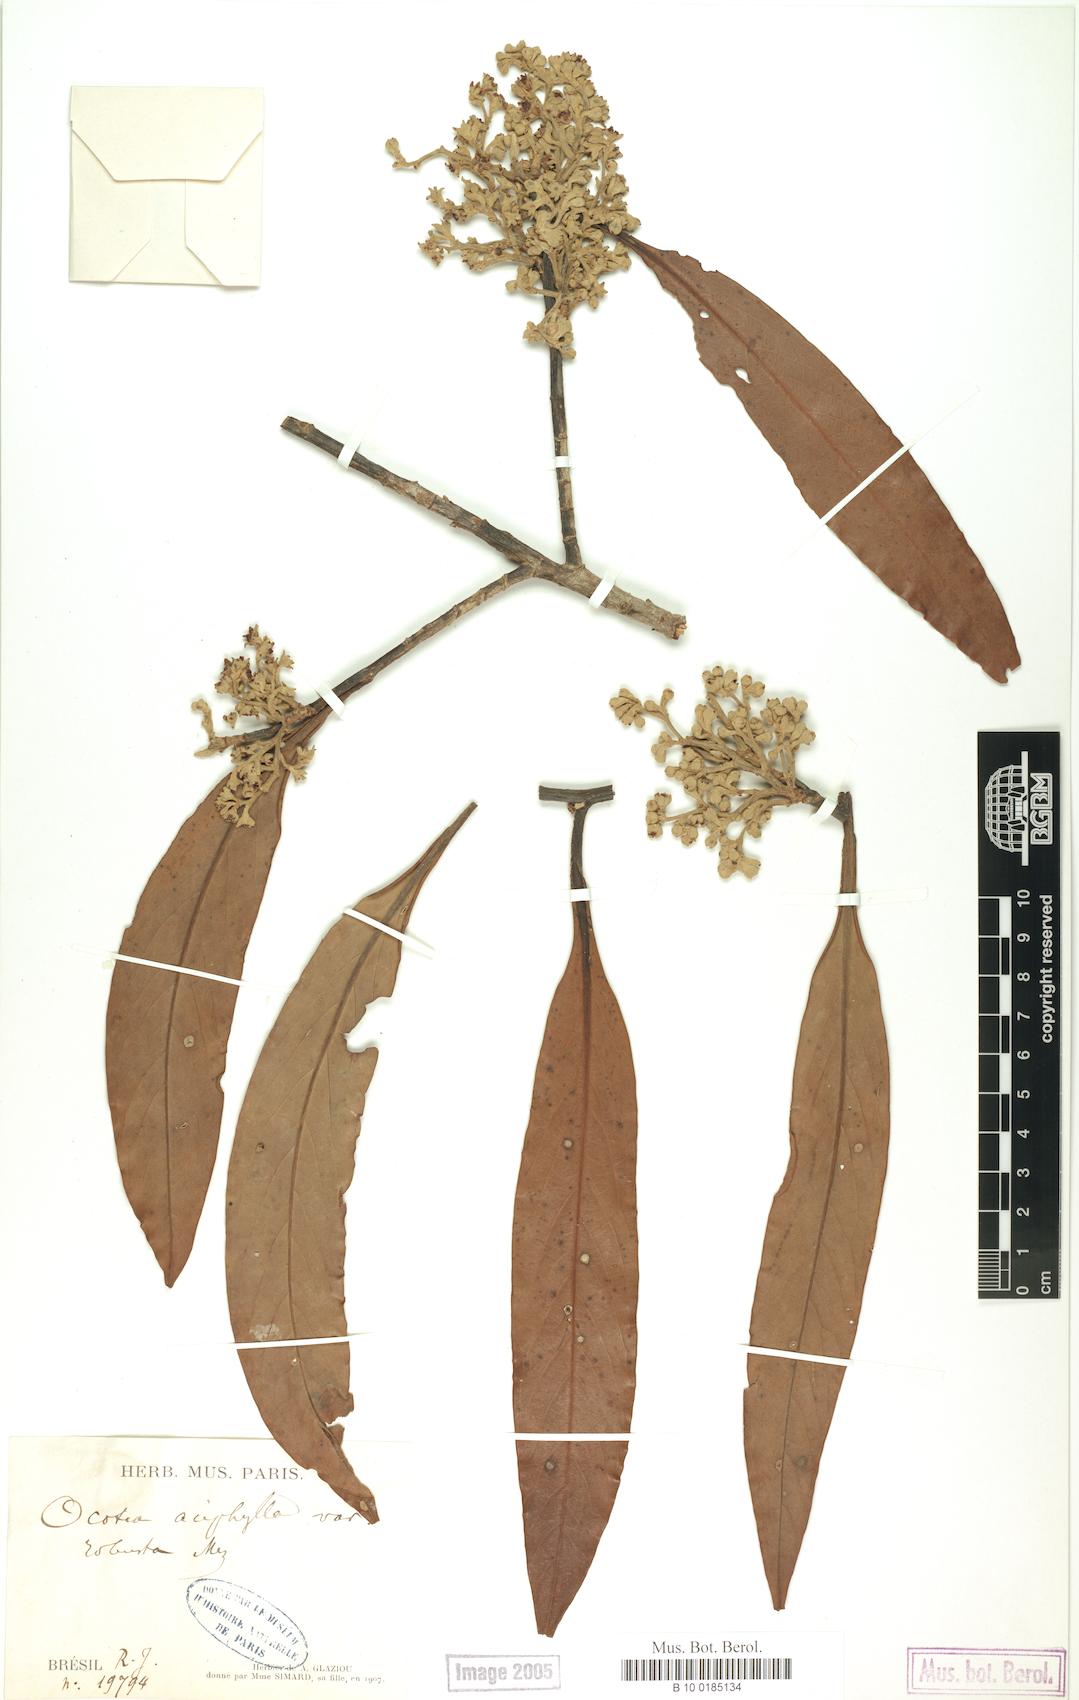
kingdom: Plantae
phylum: Tracheophyta
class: Magnoliopsida
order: Laurales
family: Lauraceae
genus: Ocotea
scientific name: Ocotea aciphylla
